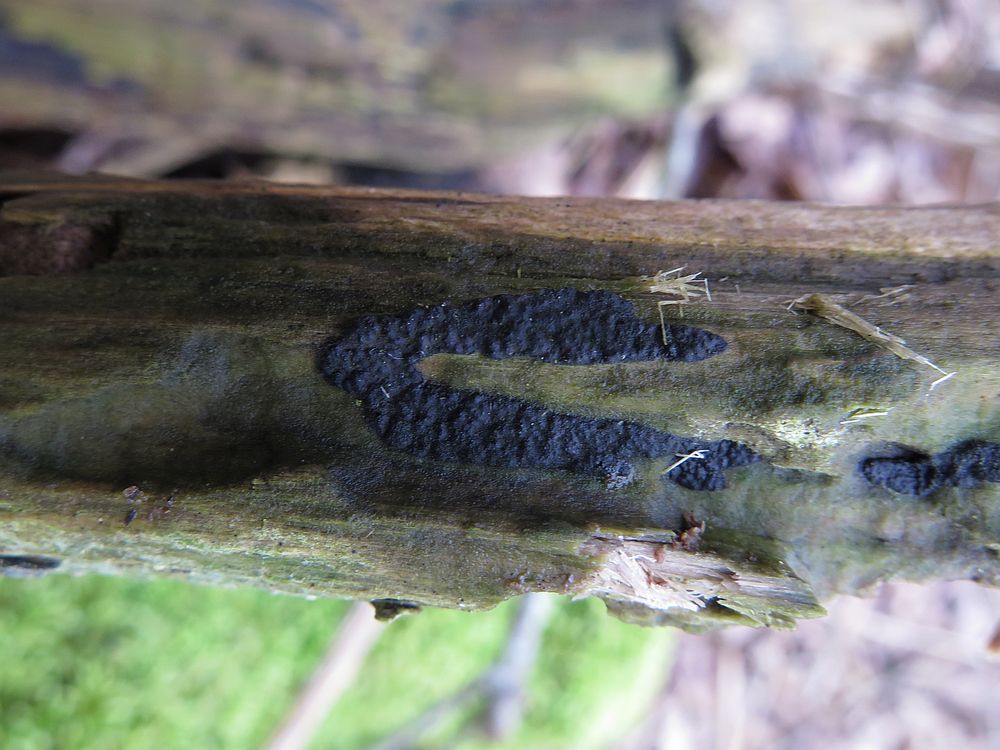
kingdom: Fungi
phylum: Ascomycota
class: Sordariomycetes
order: Xylariales
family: Xylariaceae
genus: Nemania
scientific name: Nemania serpens
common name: almindelig kuldyne
